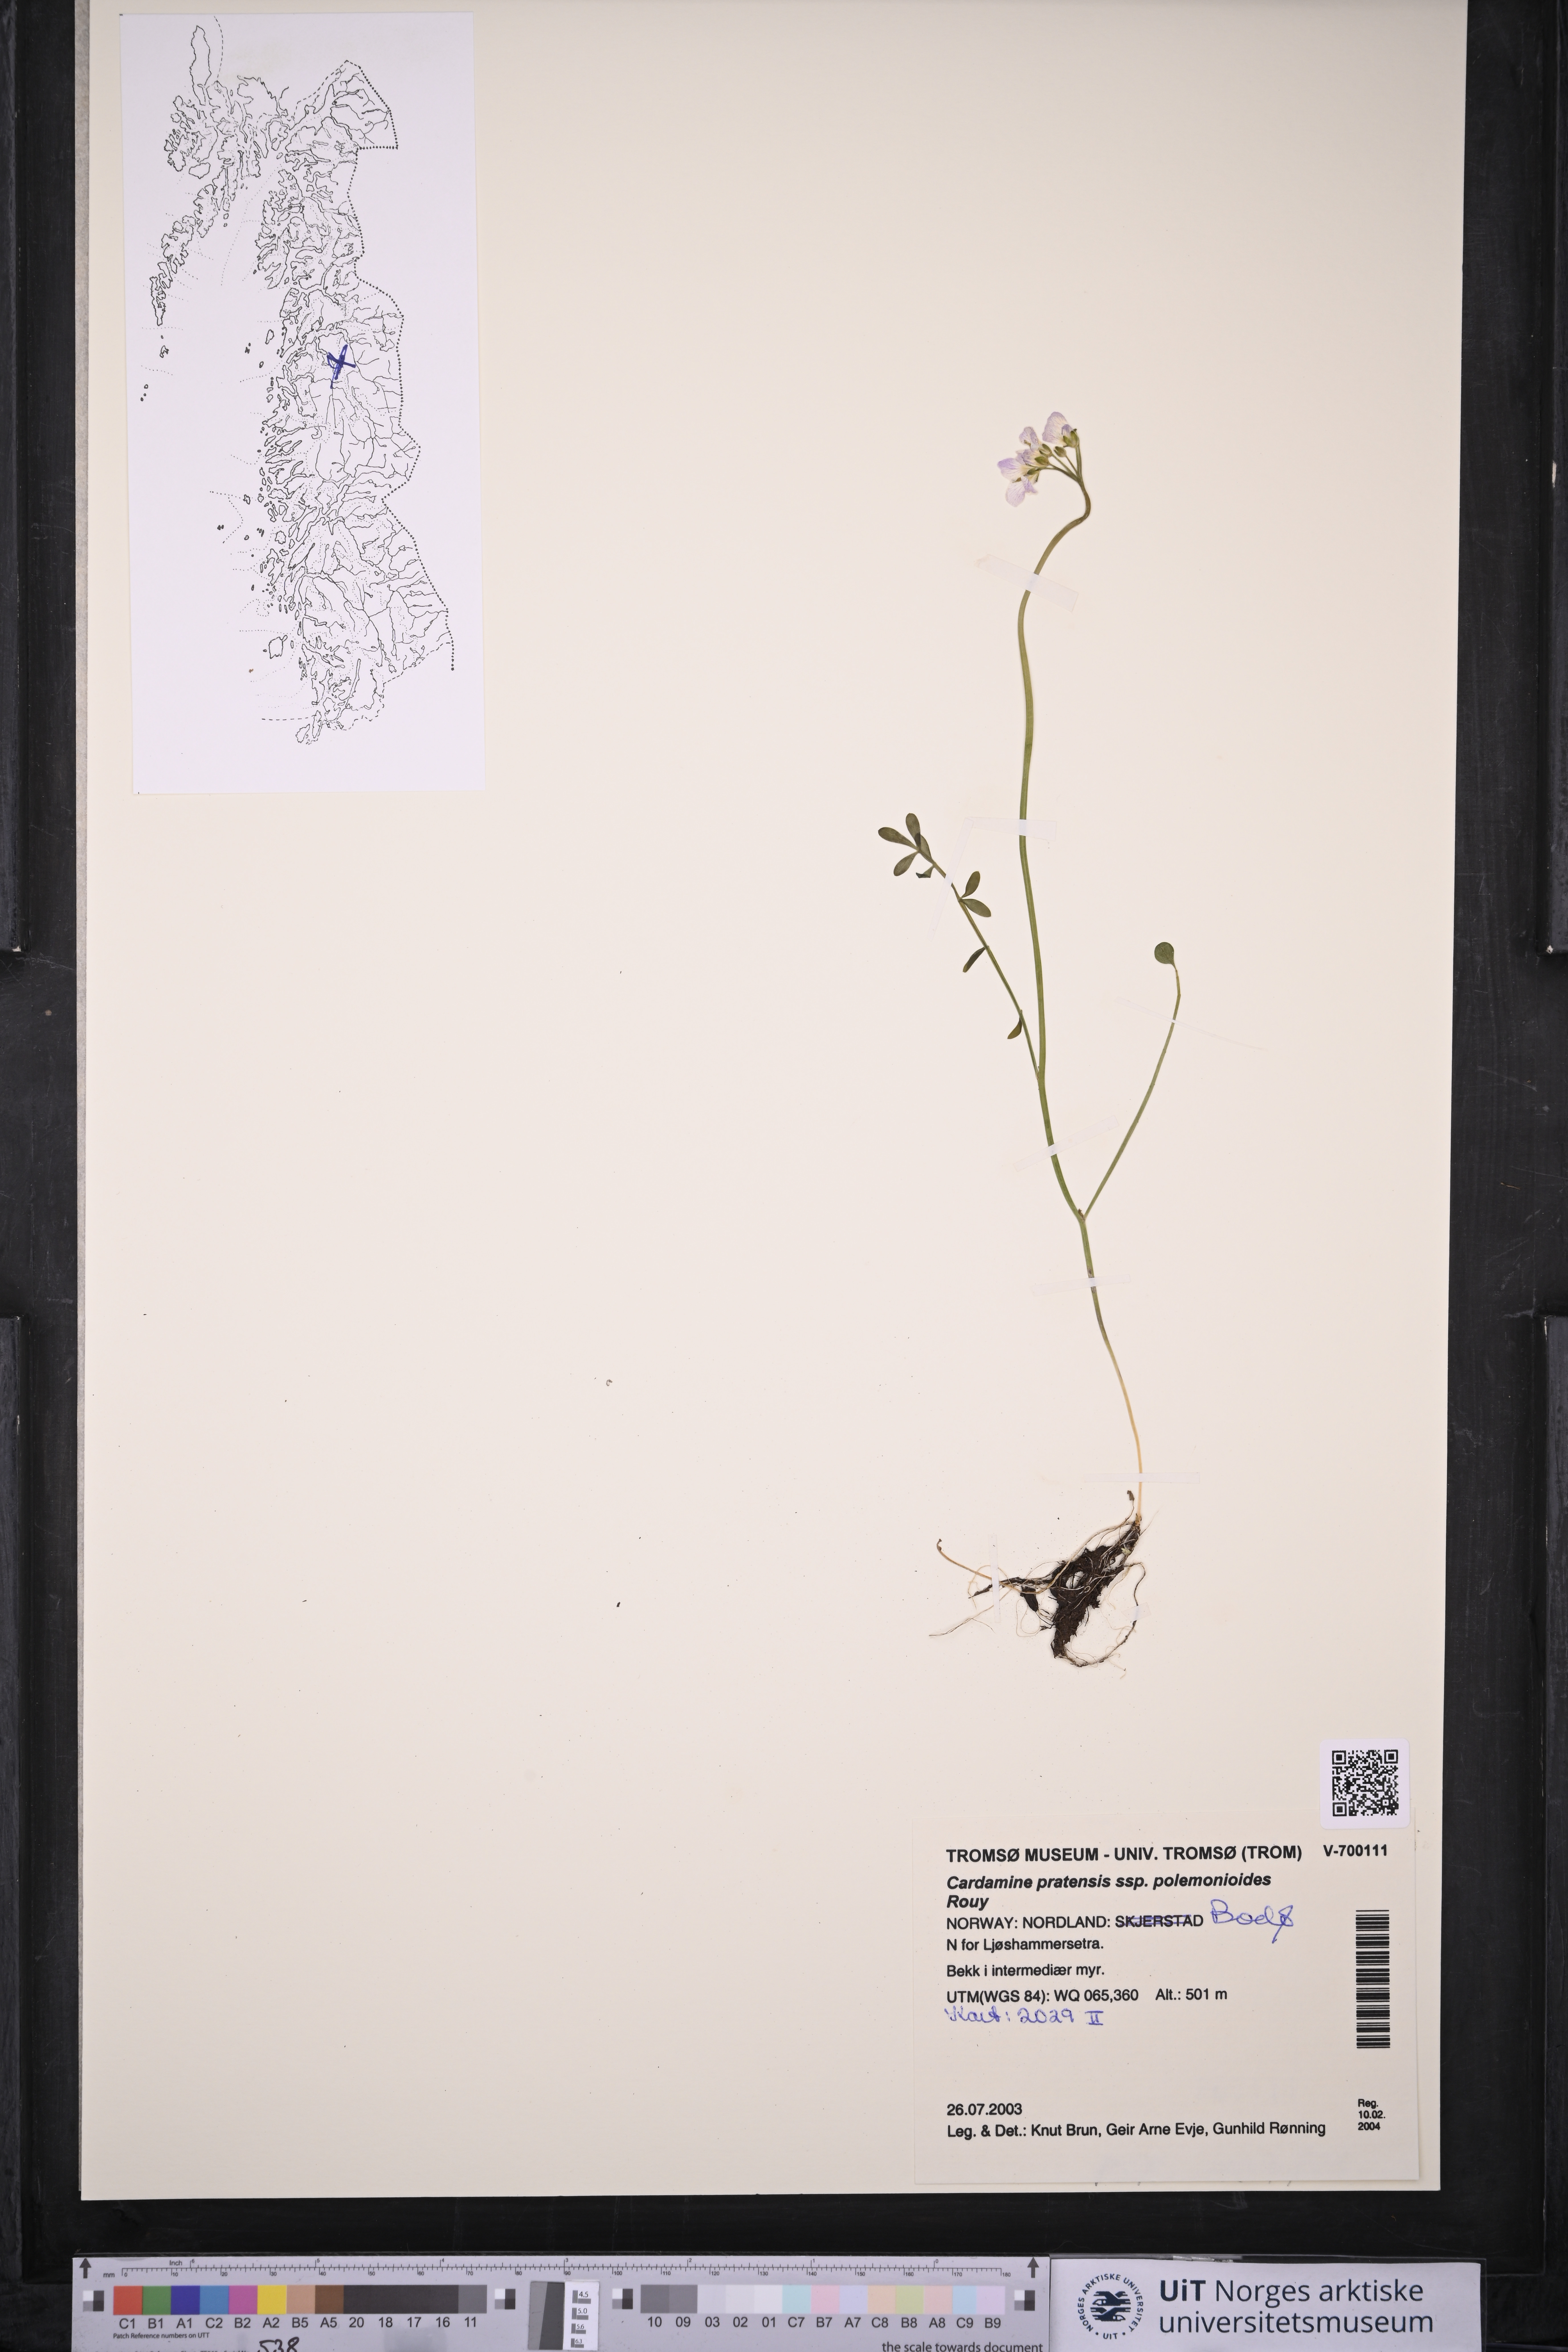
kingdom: Plantae
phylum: Tracheophyta
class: Magnoliopsida
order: Brassicales
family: Brassicaceae
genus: Cardamine
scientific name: Cardamine nymanii
